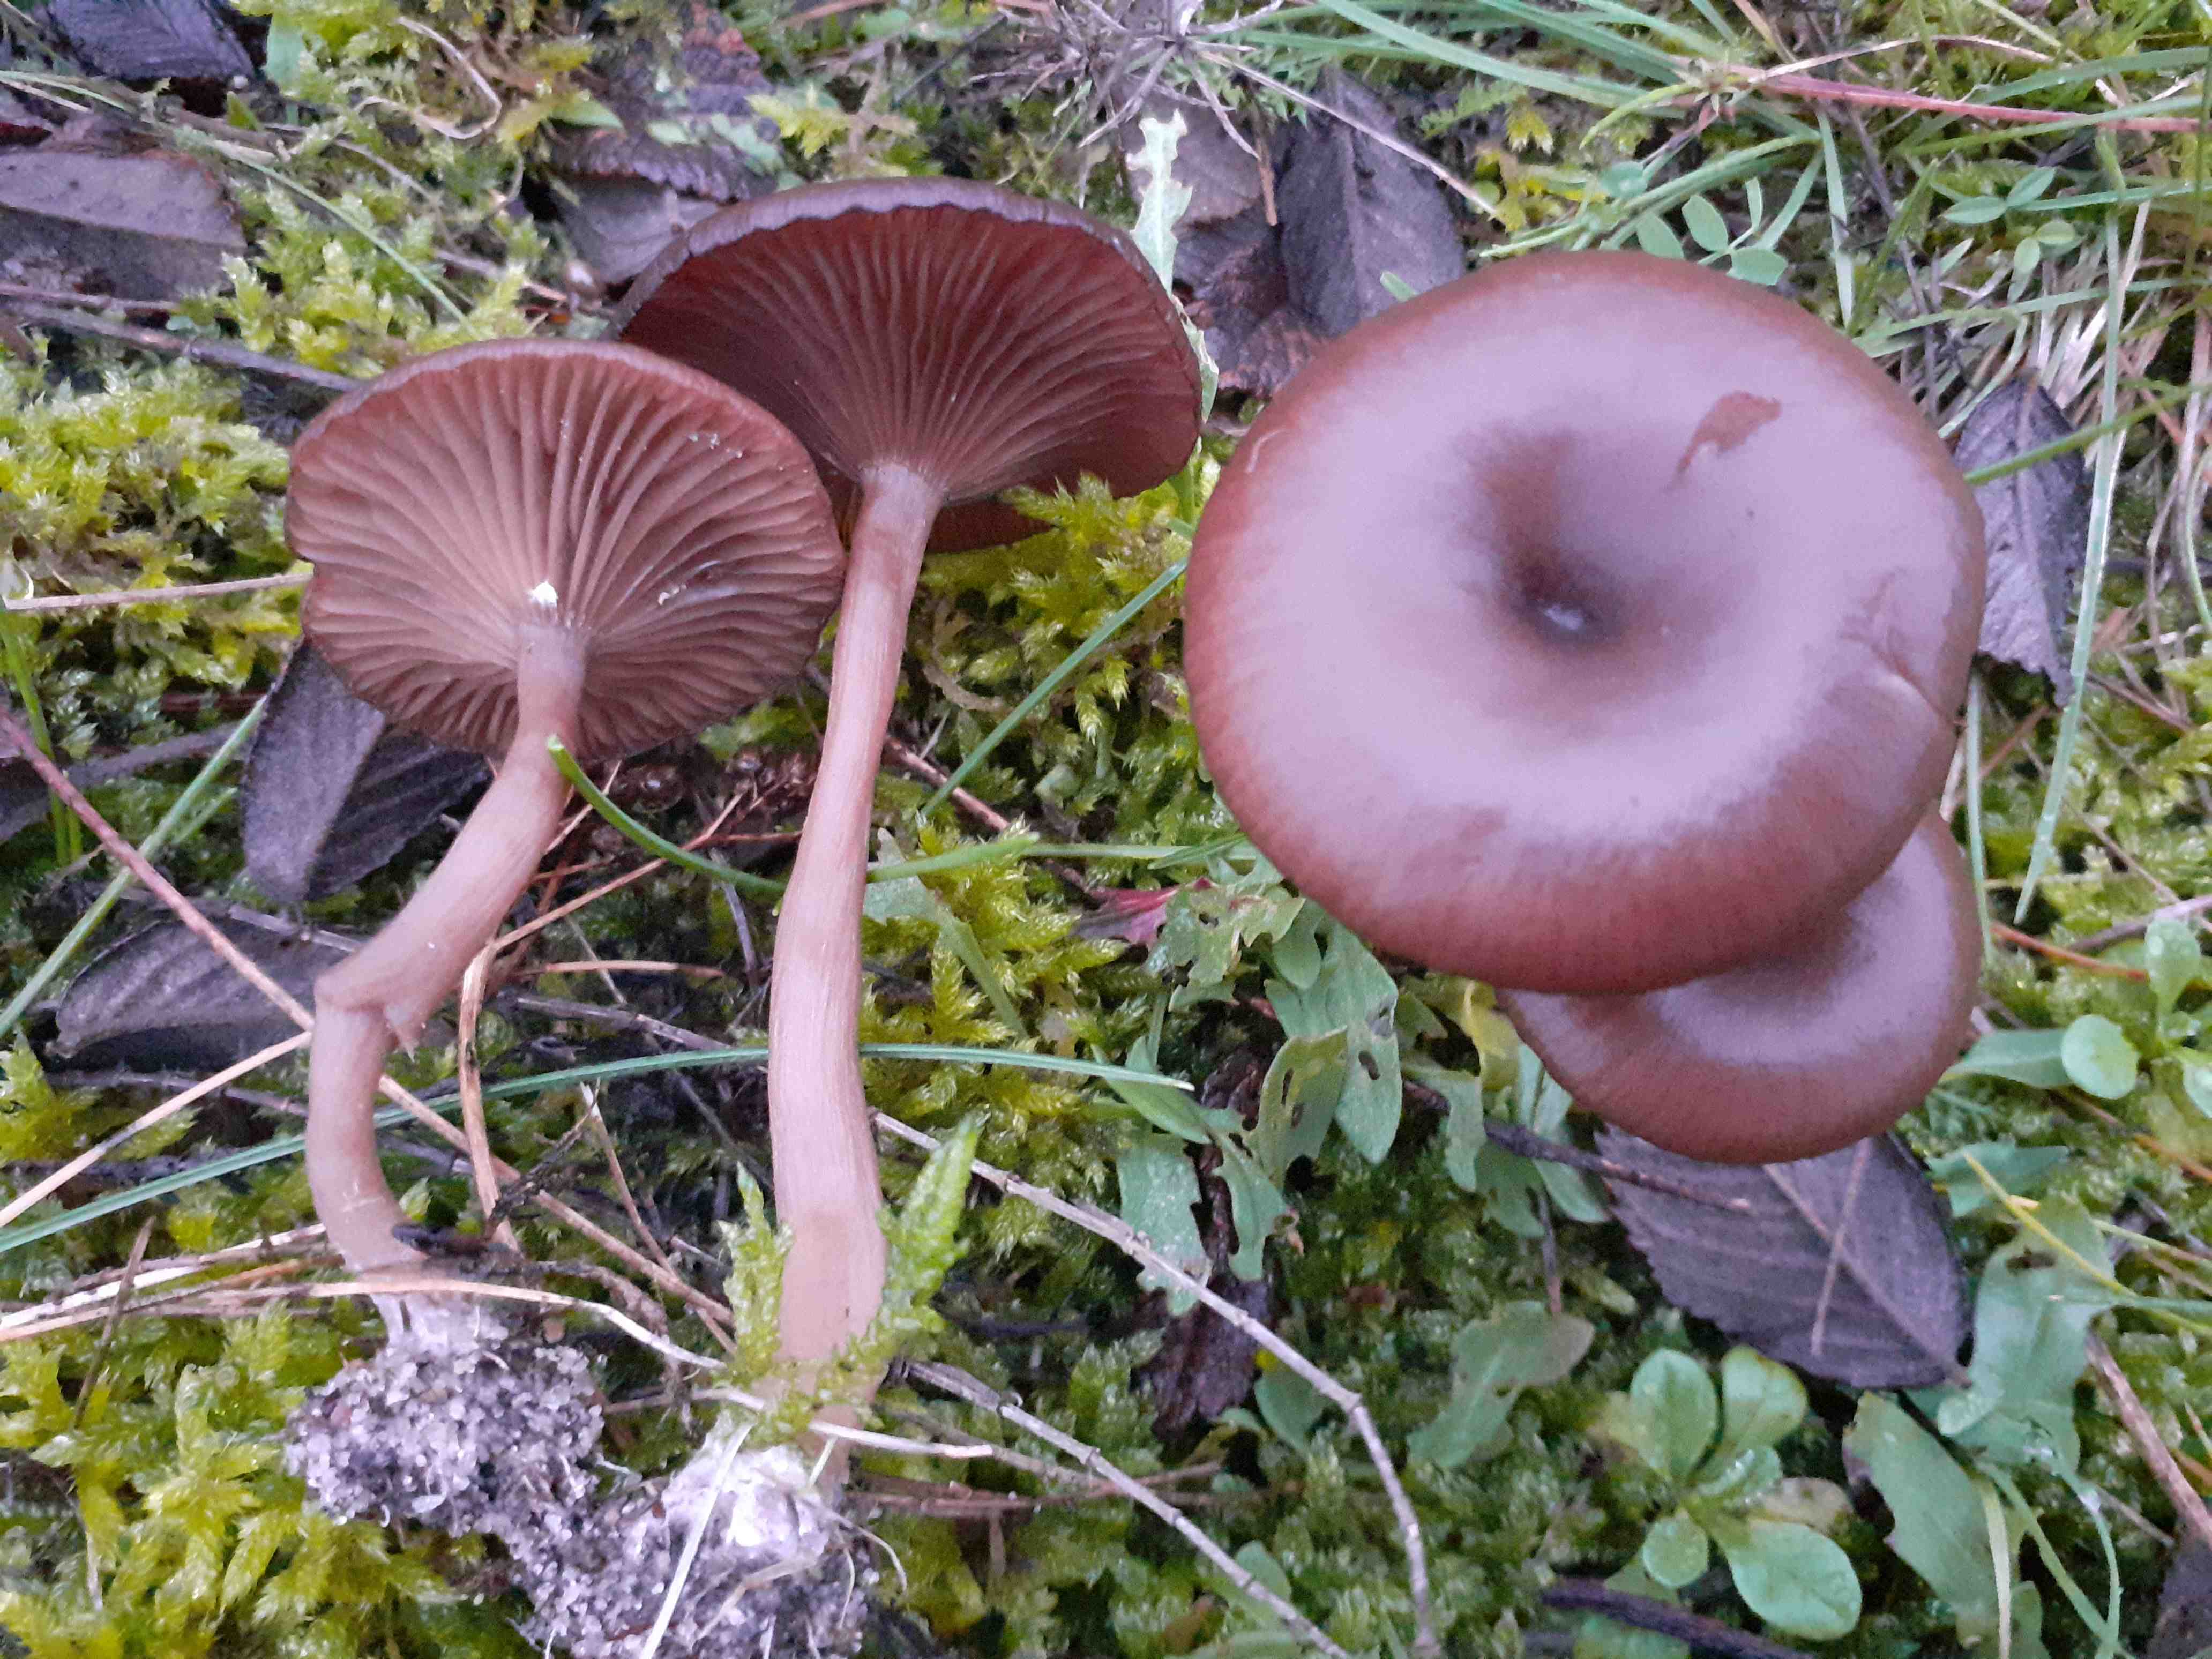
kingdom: Fungi
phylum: Basidiomycota
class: Agaricomycetes
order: Agaricales
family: Pseudoclitocybaceae
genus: Pseudoclitocybe
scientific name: Pseudoclitocybe cyathiformis
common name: almindelig bægertragthat
